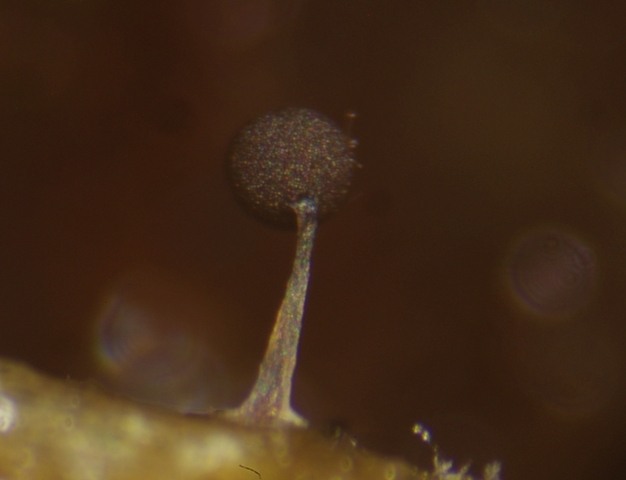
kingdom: Protozoa
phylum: Mycetozoa
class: Myxomycetes
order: Stemonitidales
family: Stemonitidaceae
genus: Comatricha
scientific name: Comatricha elegans
